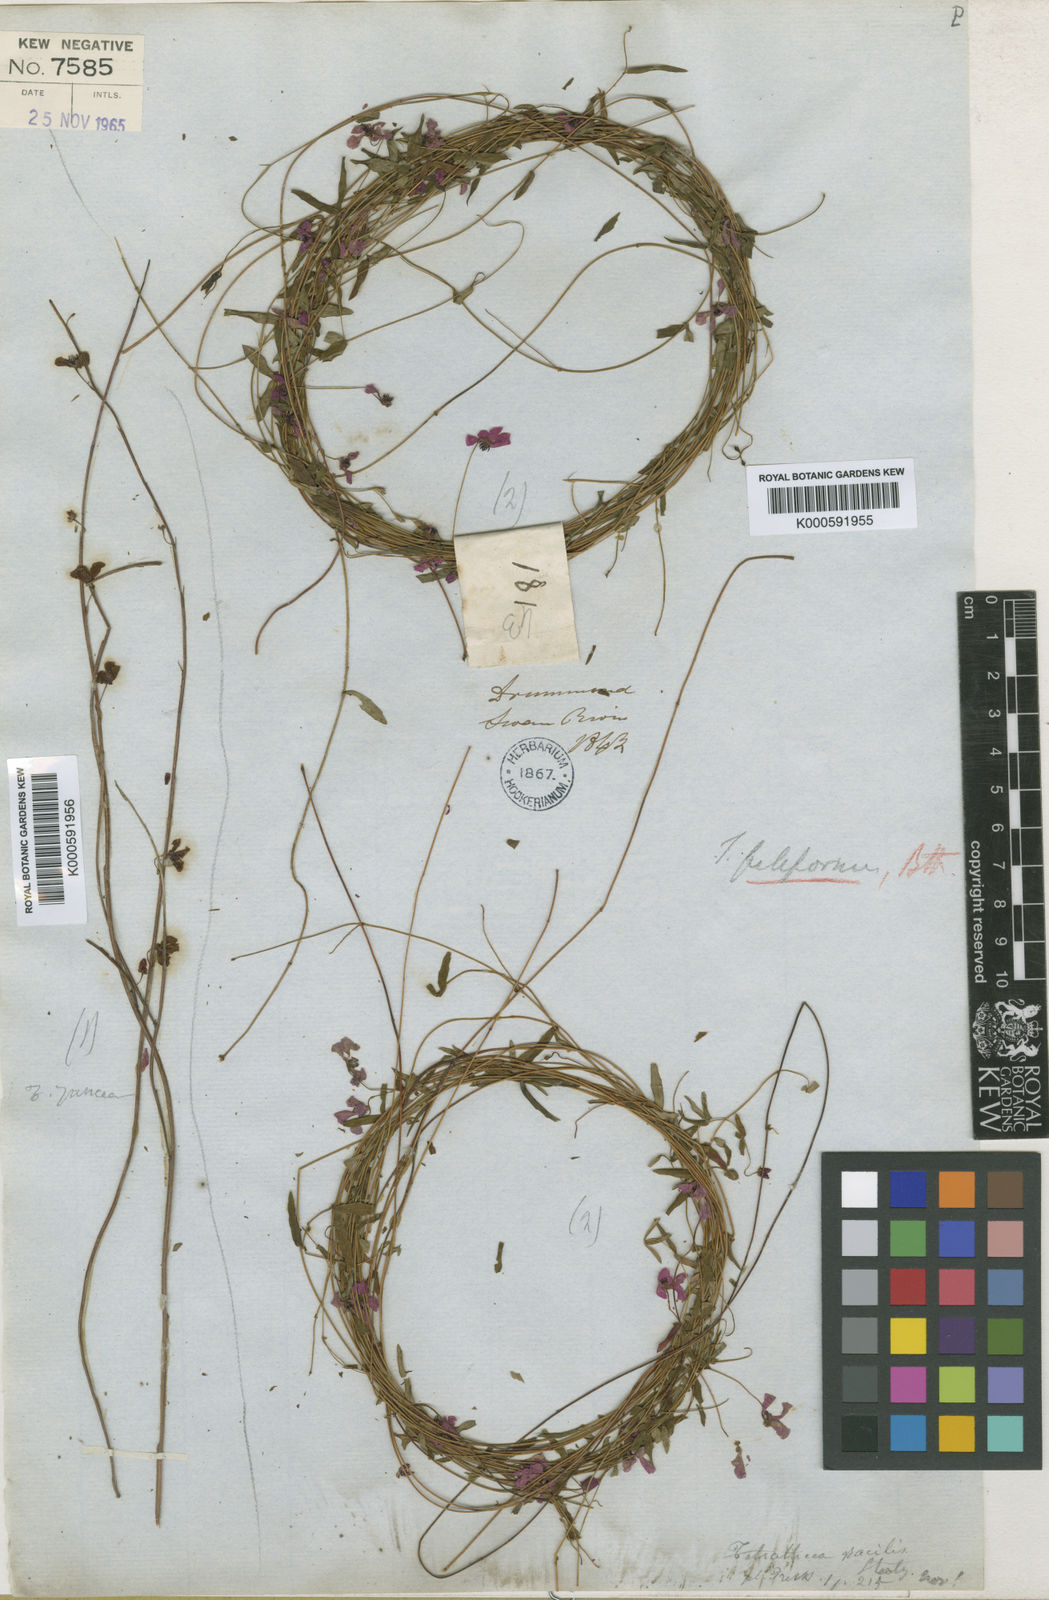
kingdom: Plantae
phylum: Tracheophyta
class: Magnoliopsida
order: Oxalidales
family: Elaeocarpaceae
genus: Tetratheca
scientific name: Tetratheca filiformis
